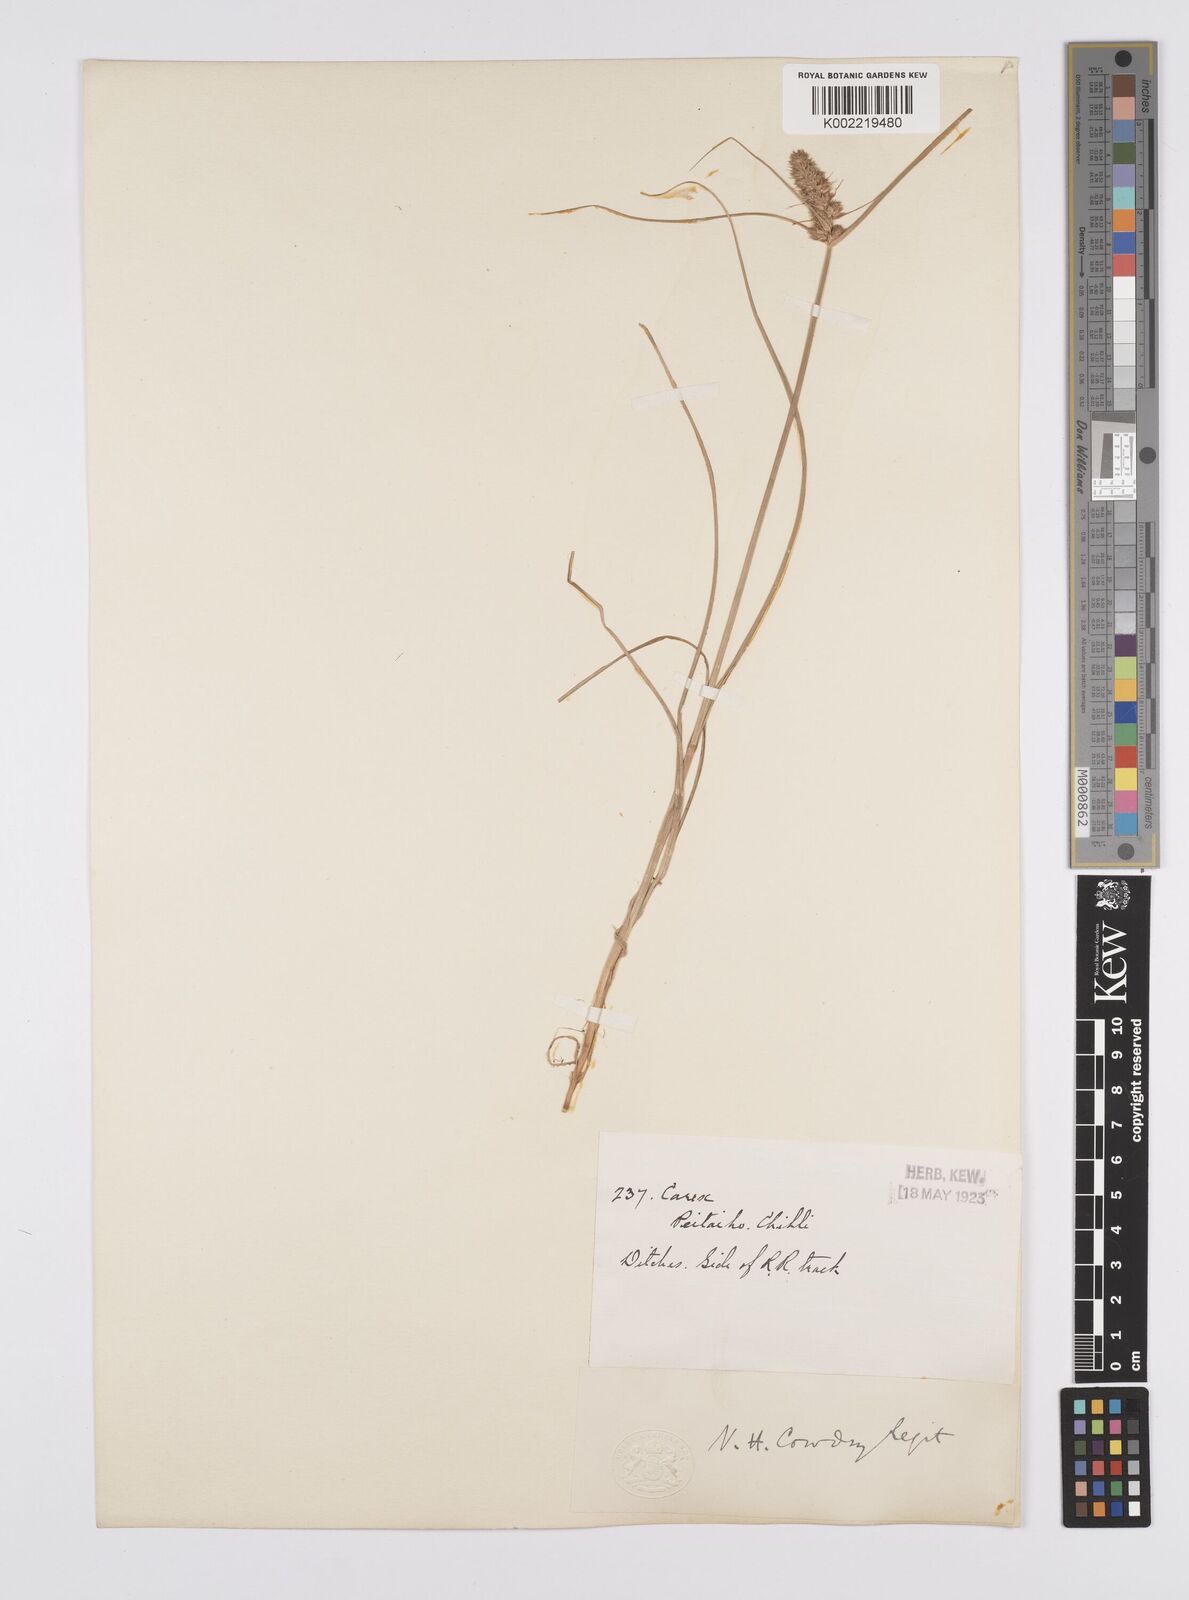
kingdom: Plantae
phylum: Tracheophyta
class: Liliopsida
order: Poales
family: Cyperaceae
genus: Carex
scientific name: Carex neurocarpa
